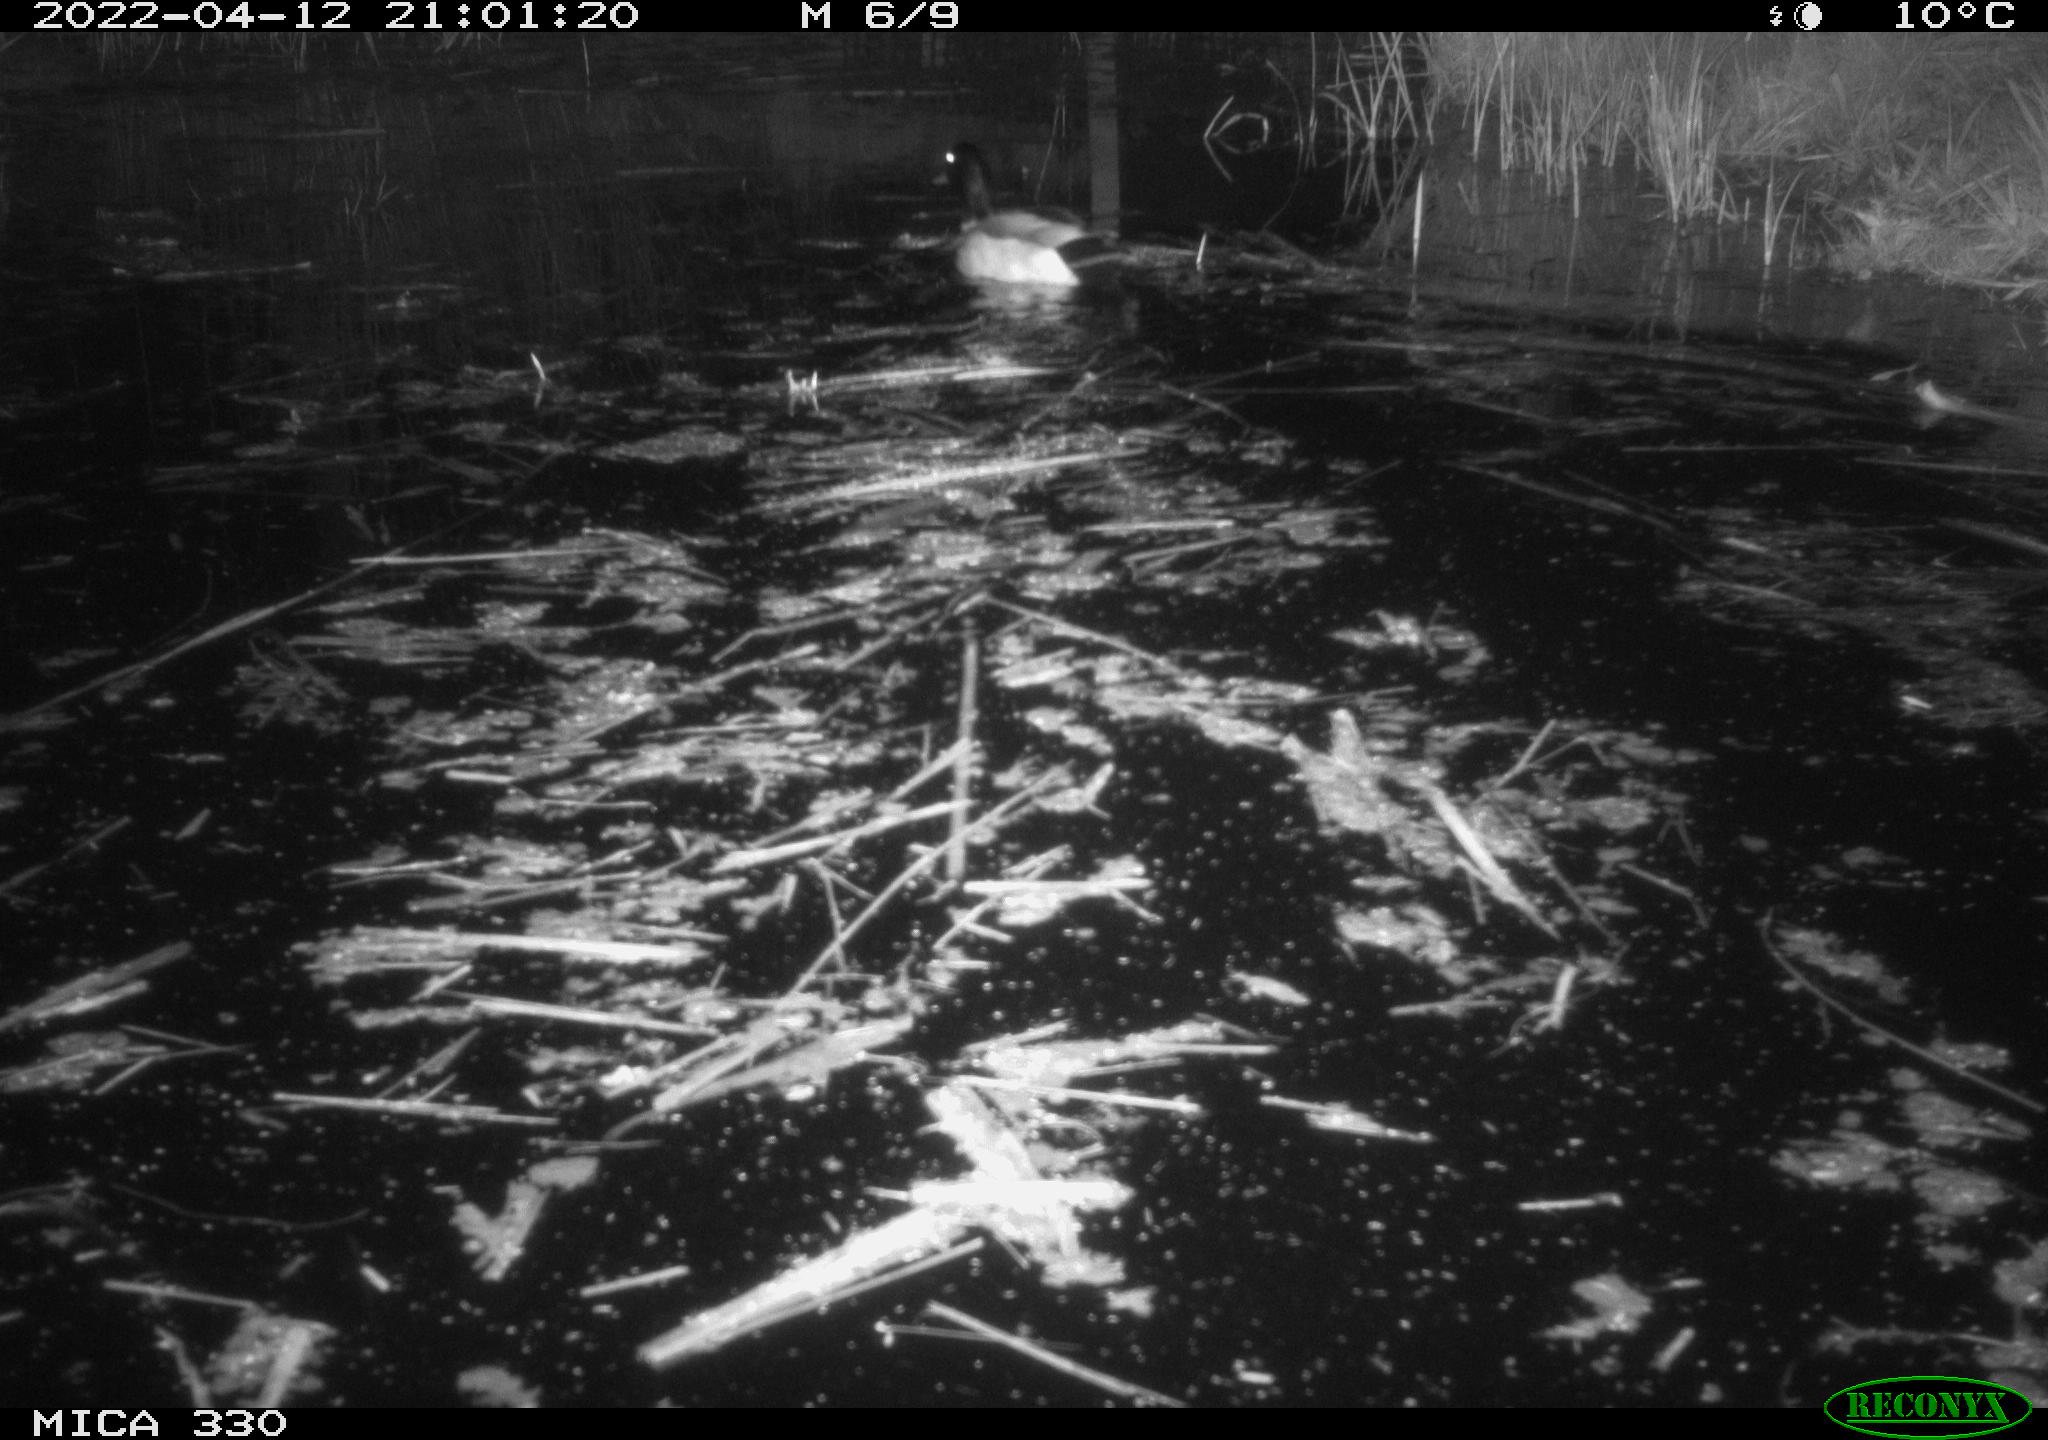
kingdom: Animalia
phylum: Chordata
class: Aves
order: Anseriformes
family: Anatidae
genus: Anas
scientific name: Anas platyrhynchos
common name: Mallard
